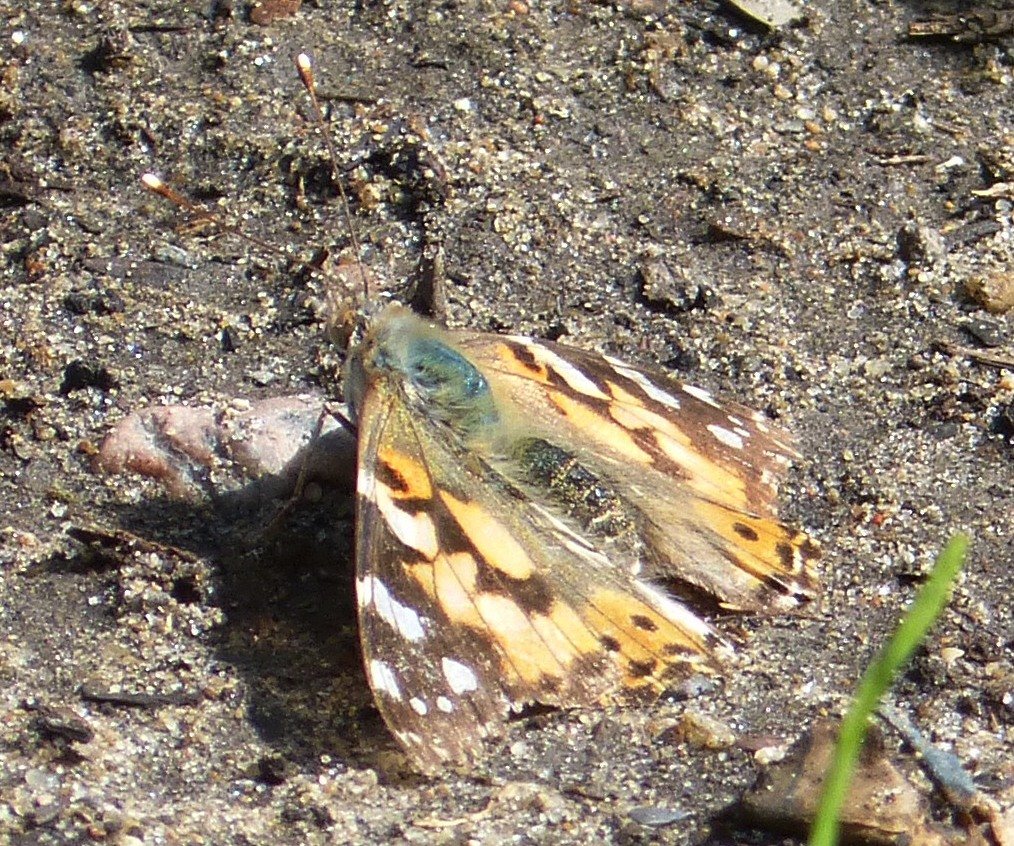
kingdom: Animalia
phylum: Arthropoda
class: Insecta
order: Lepidoptera
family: Nymphalidae
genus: Vanessa
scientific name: Vanessa cardui
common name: Painted Lady
